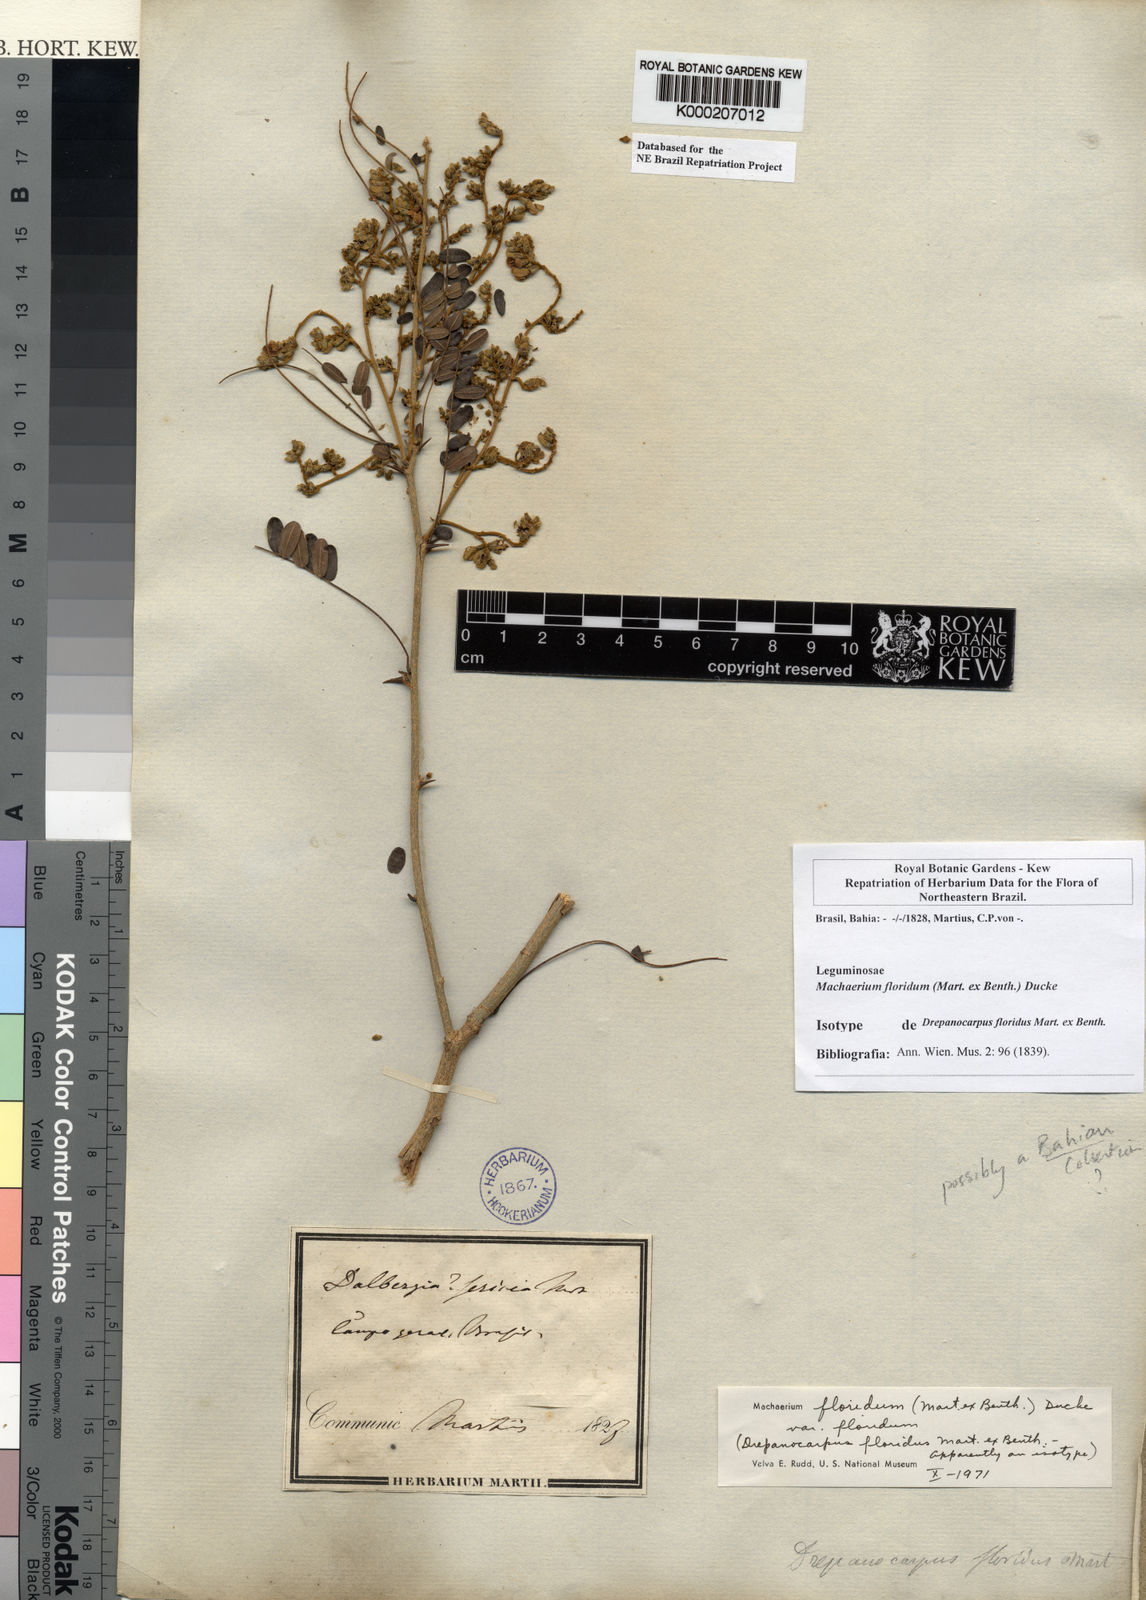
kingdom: Plantae
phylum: Tracheophyta
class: Magnoliopsida
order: Fabales
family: Fabaceae
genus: Machaerium
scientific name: Machaerium floridum
